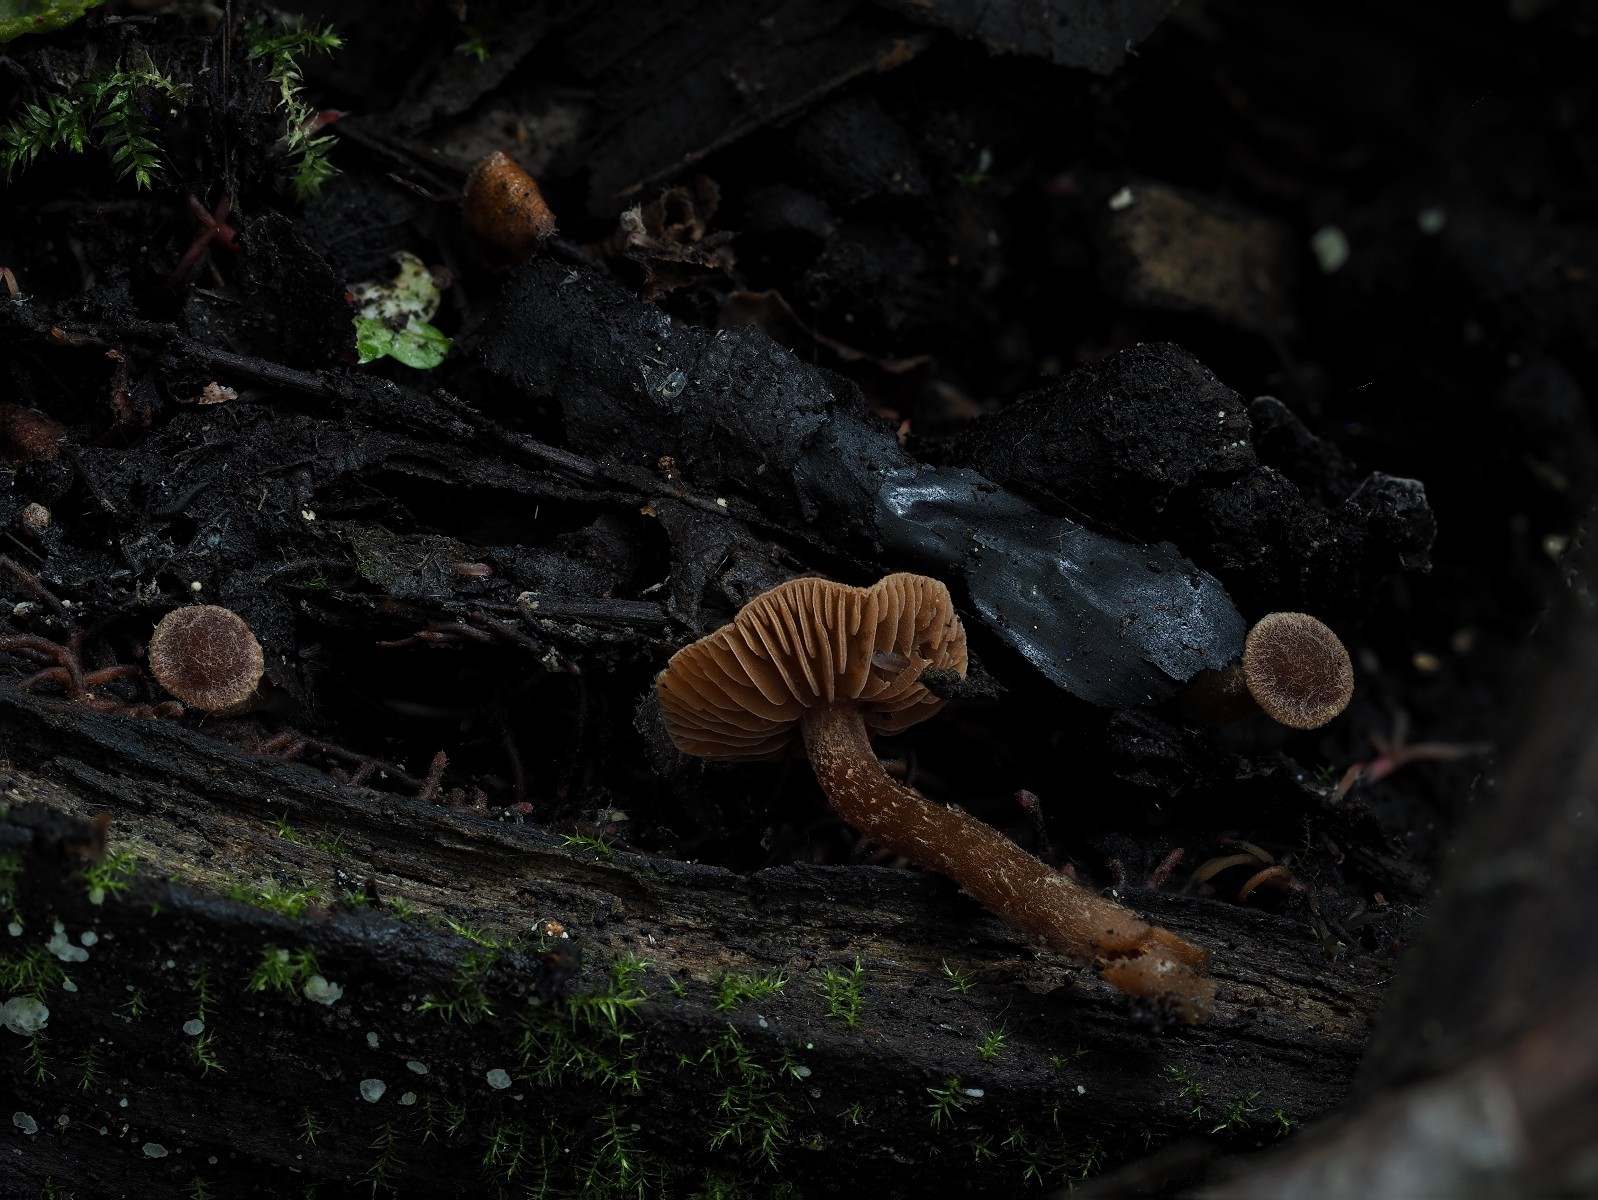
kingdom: Fungi
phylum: Basidiomycota
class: Agaricomycetes
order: Agaricales
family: Hymenogastraceae
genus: Naucoria
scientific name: Naucoria sphagneti
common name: lysrandet knaphat
